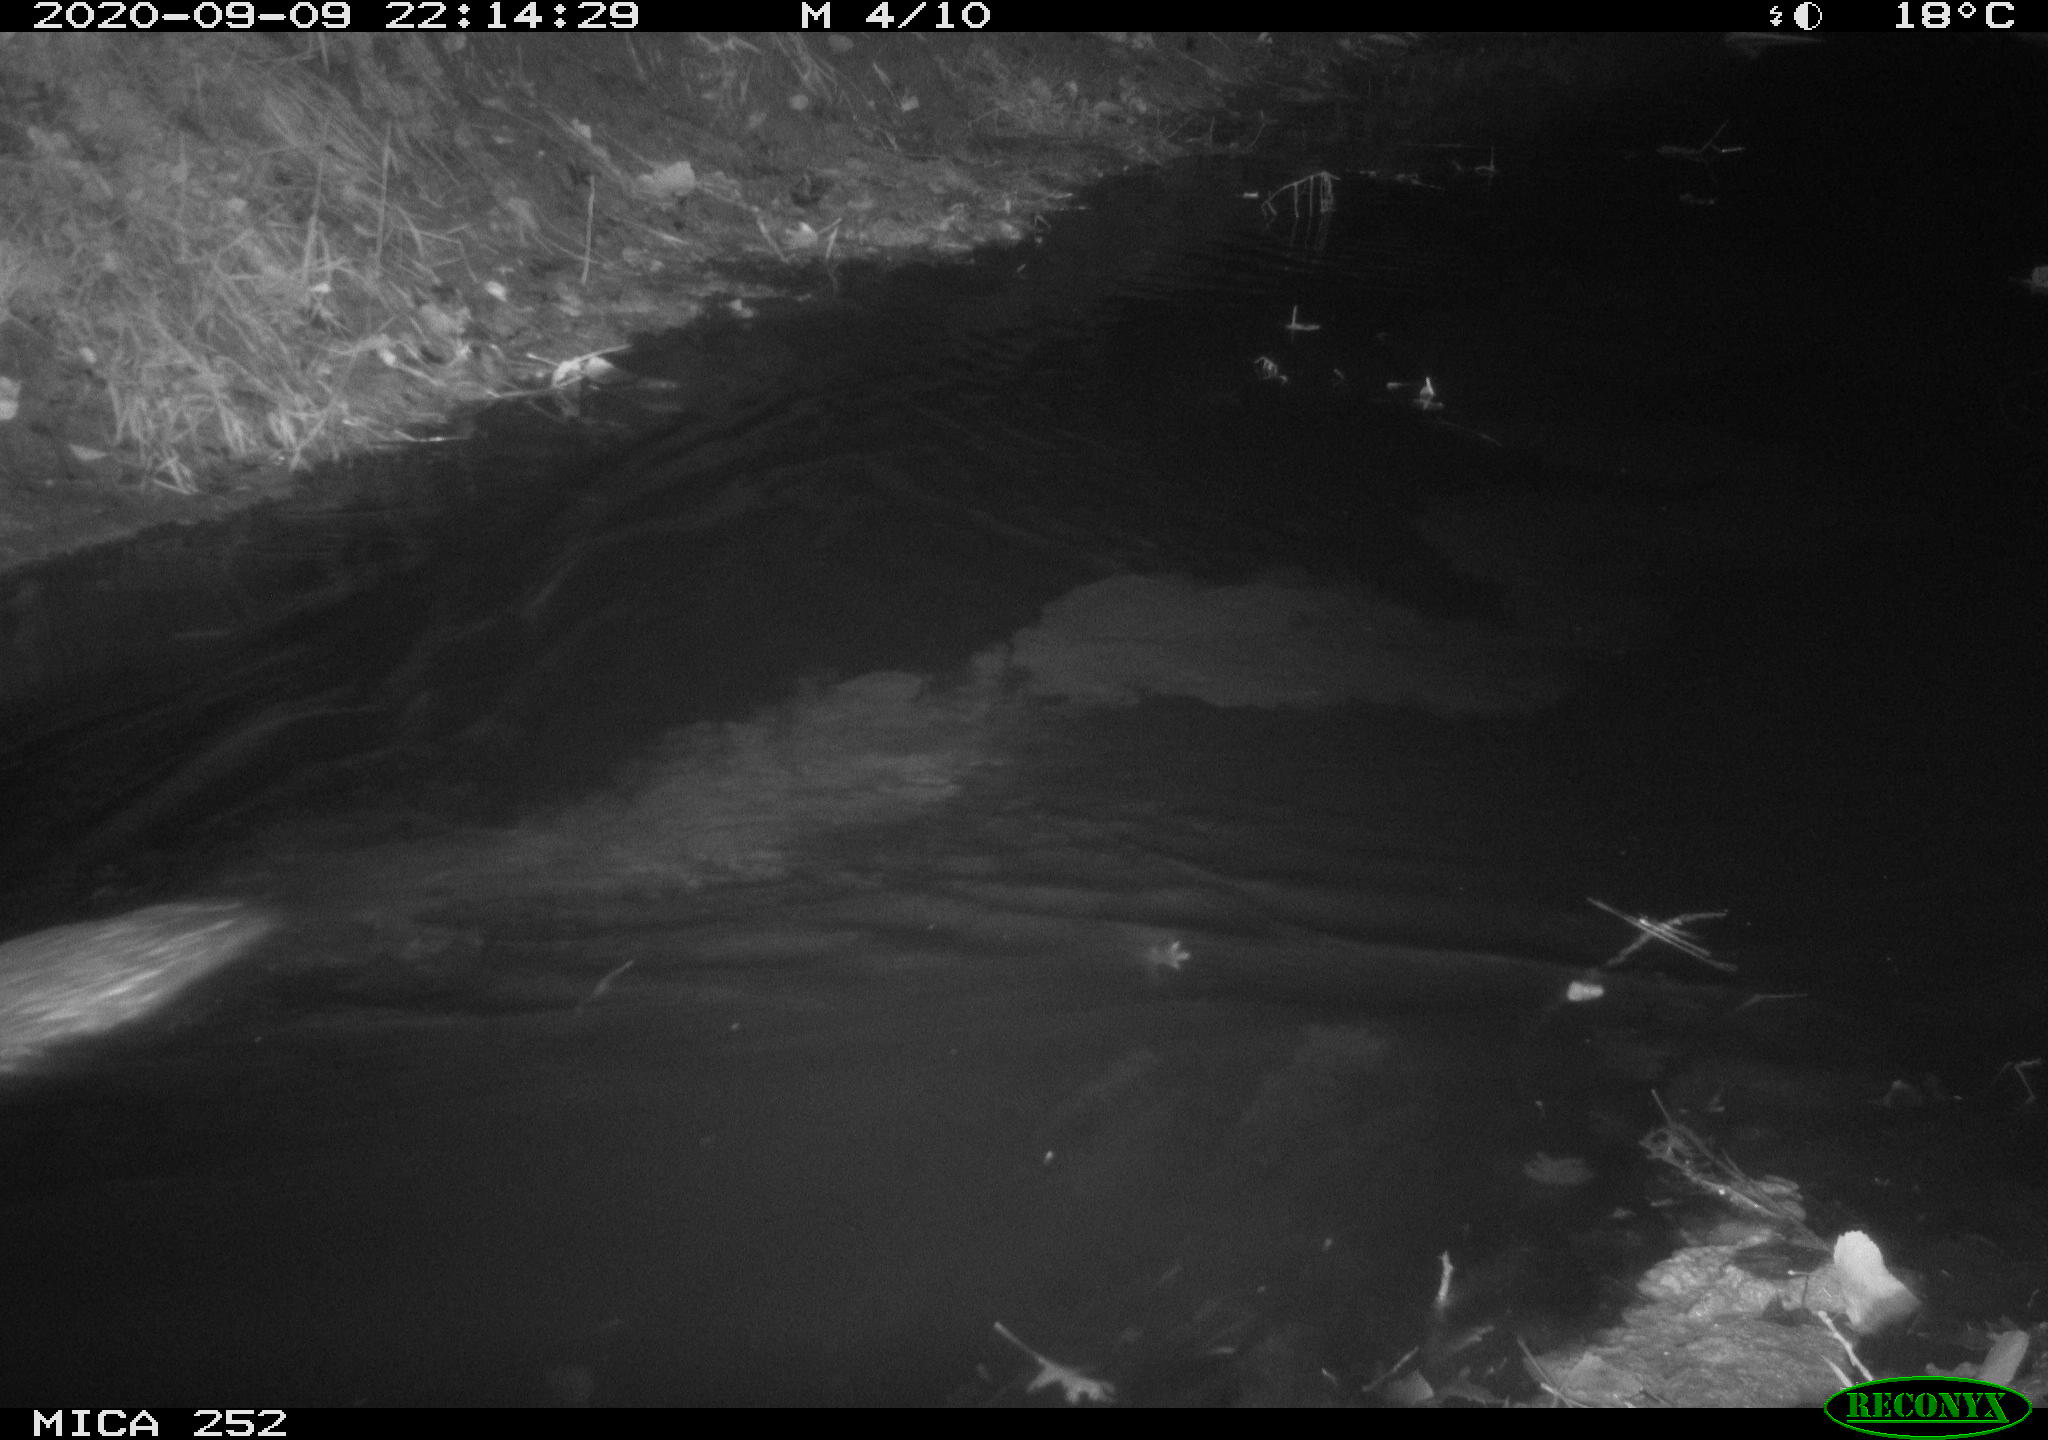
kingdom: Animalia
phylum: Chordata
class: Mammalia
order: Rodentia
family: Castoridae
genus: Castor
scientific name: Castor fiber
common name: Eurasian beaver
